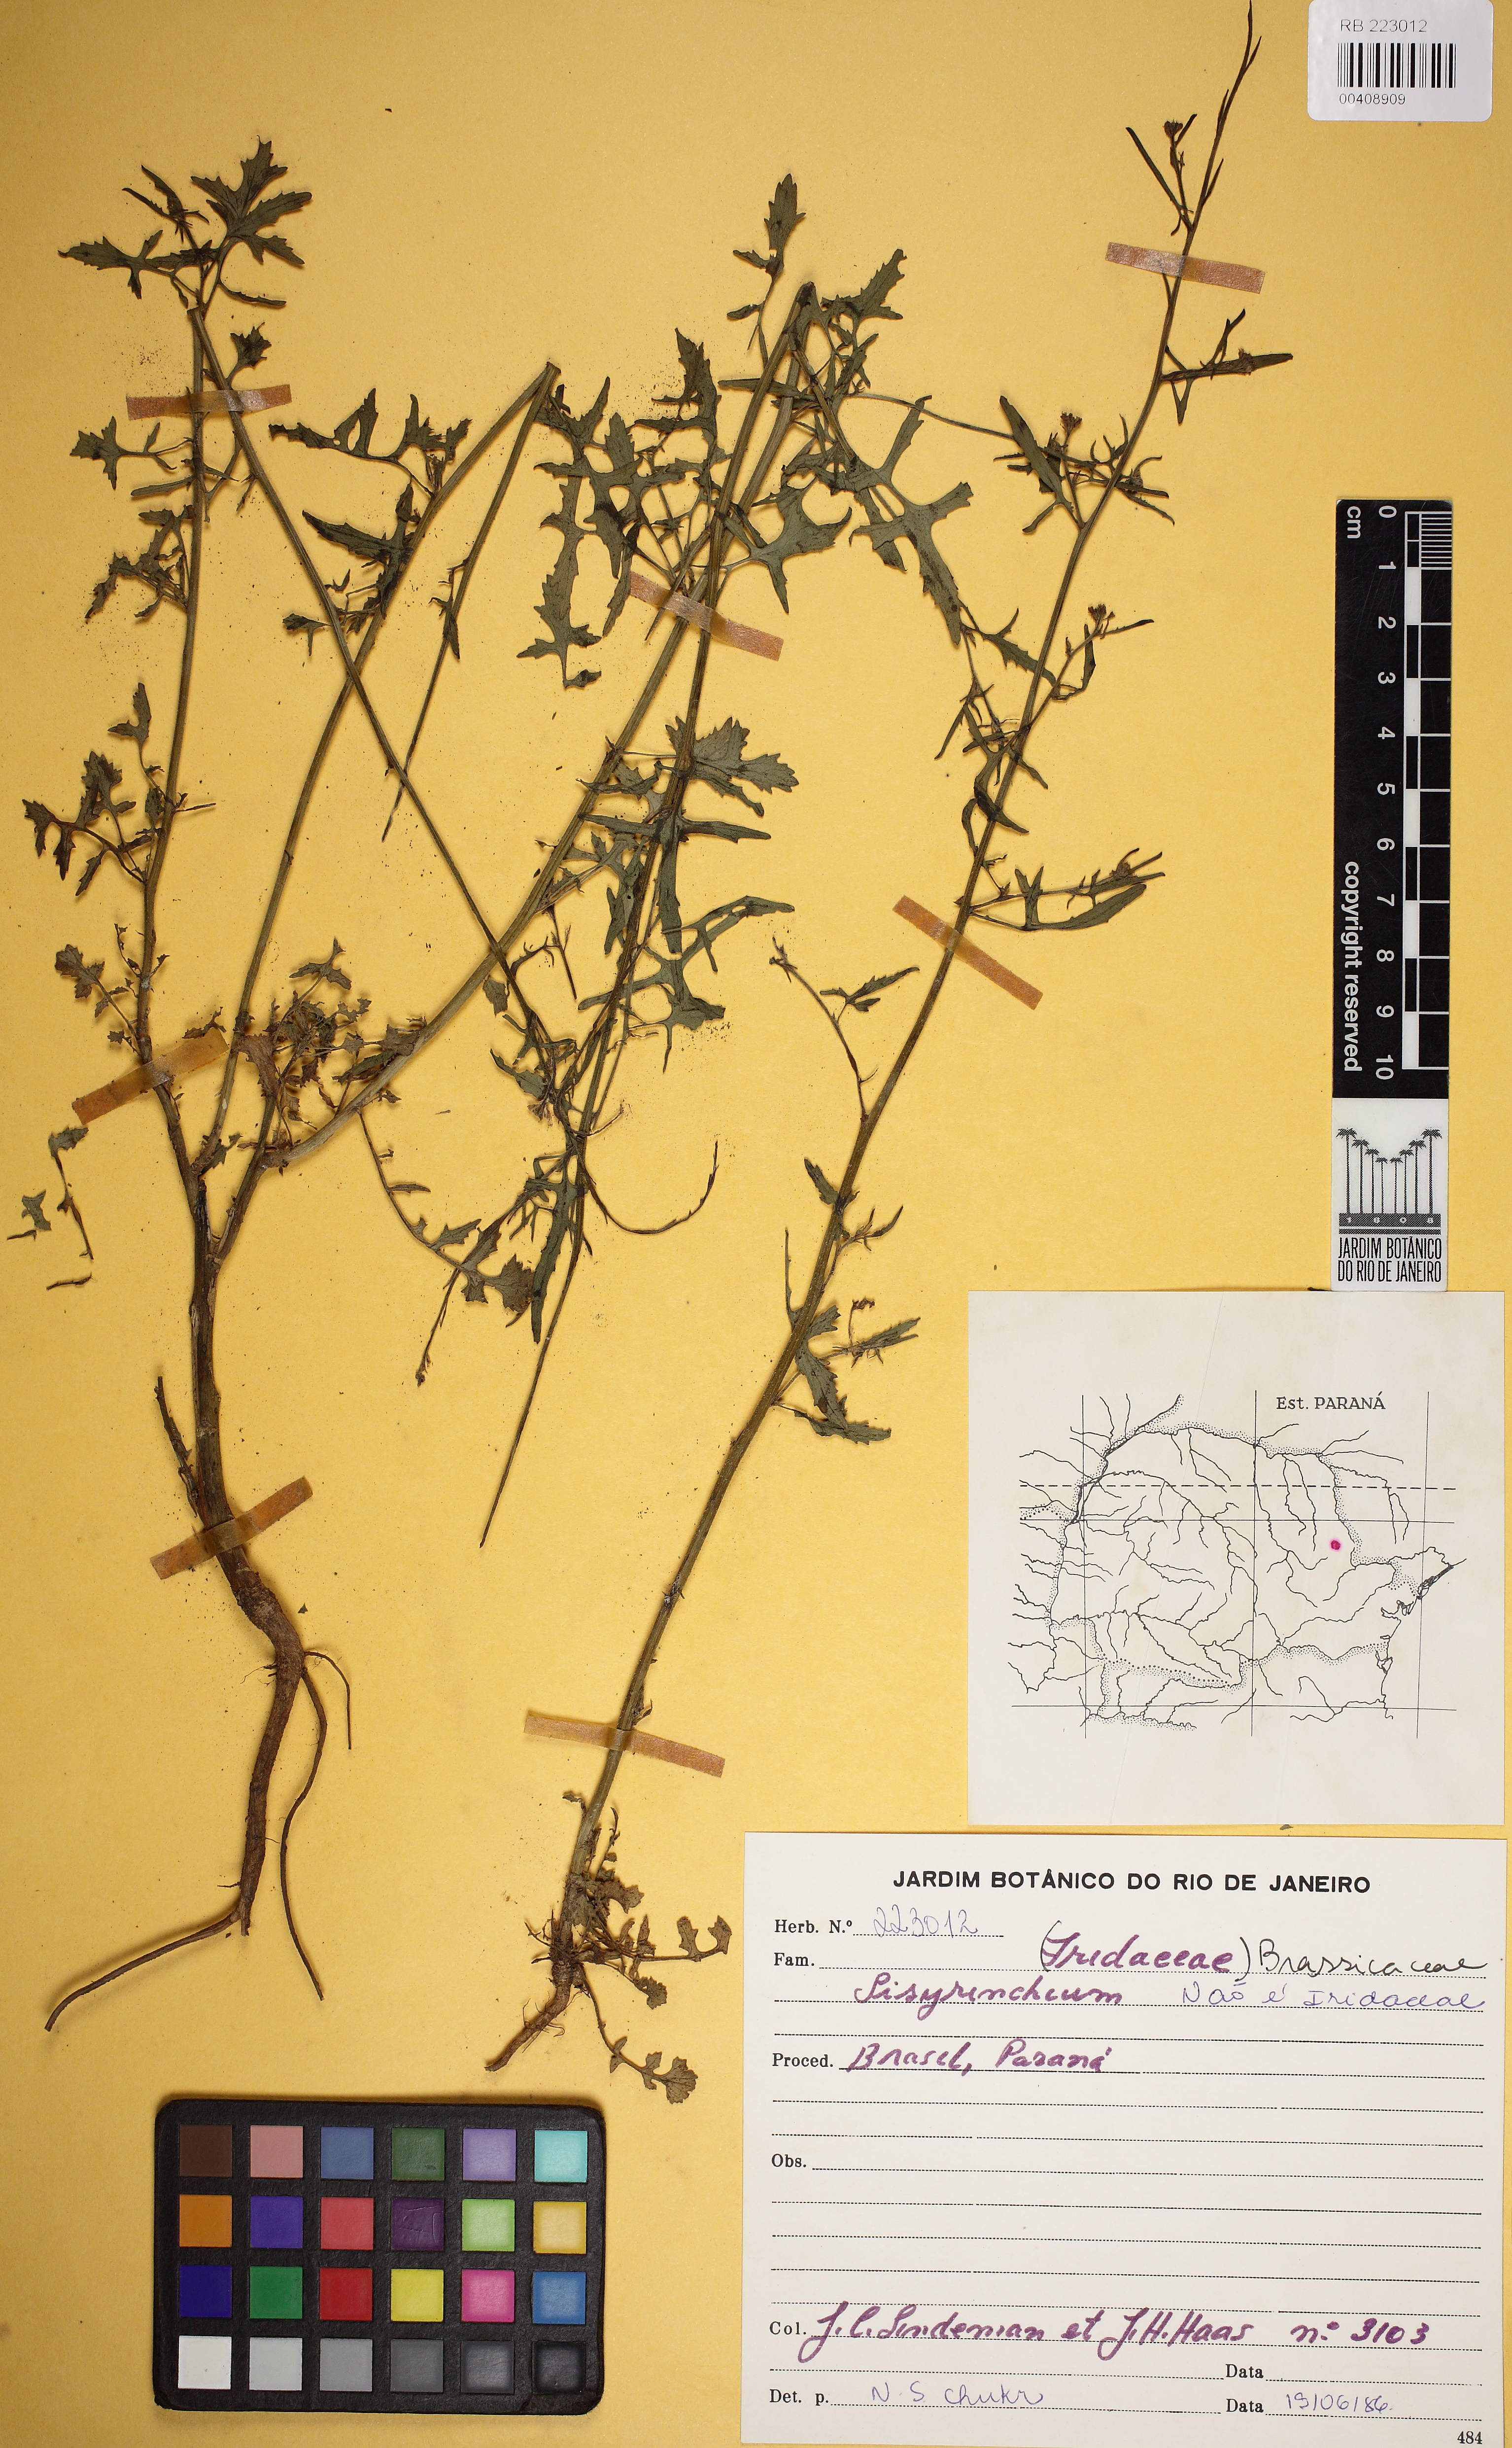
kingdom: Plantae
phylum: Tracheophyta
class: Magnoliopsida
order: Brassicales
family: Brassicaceae
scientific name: Brassicaceae
